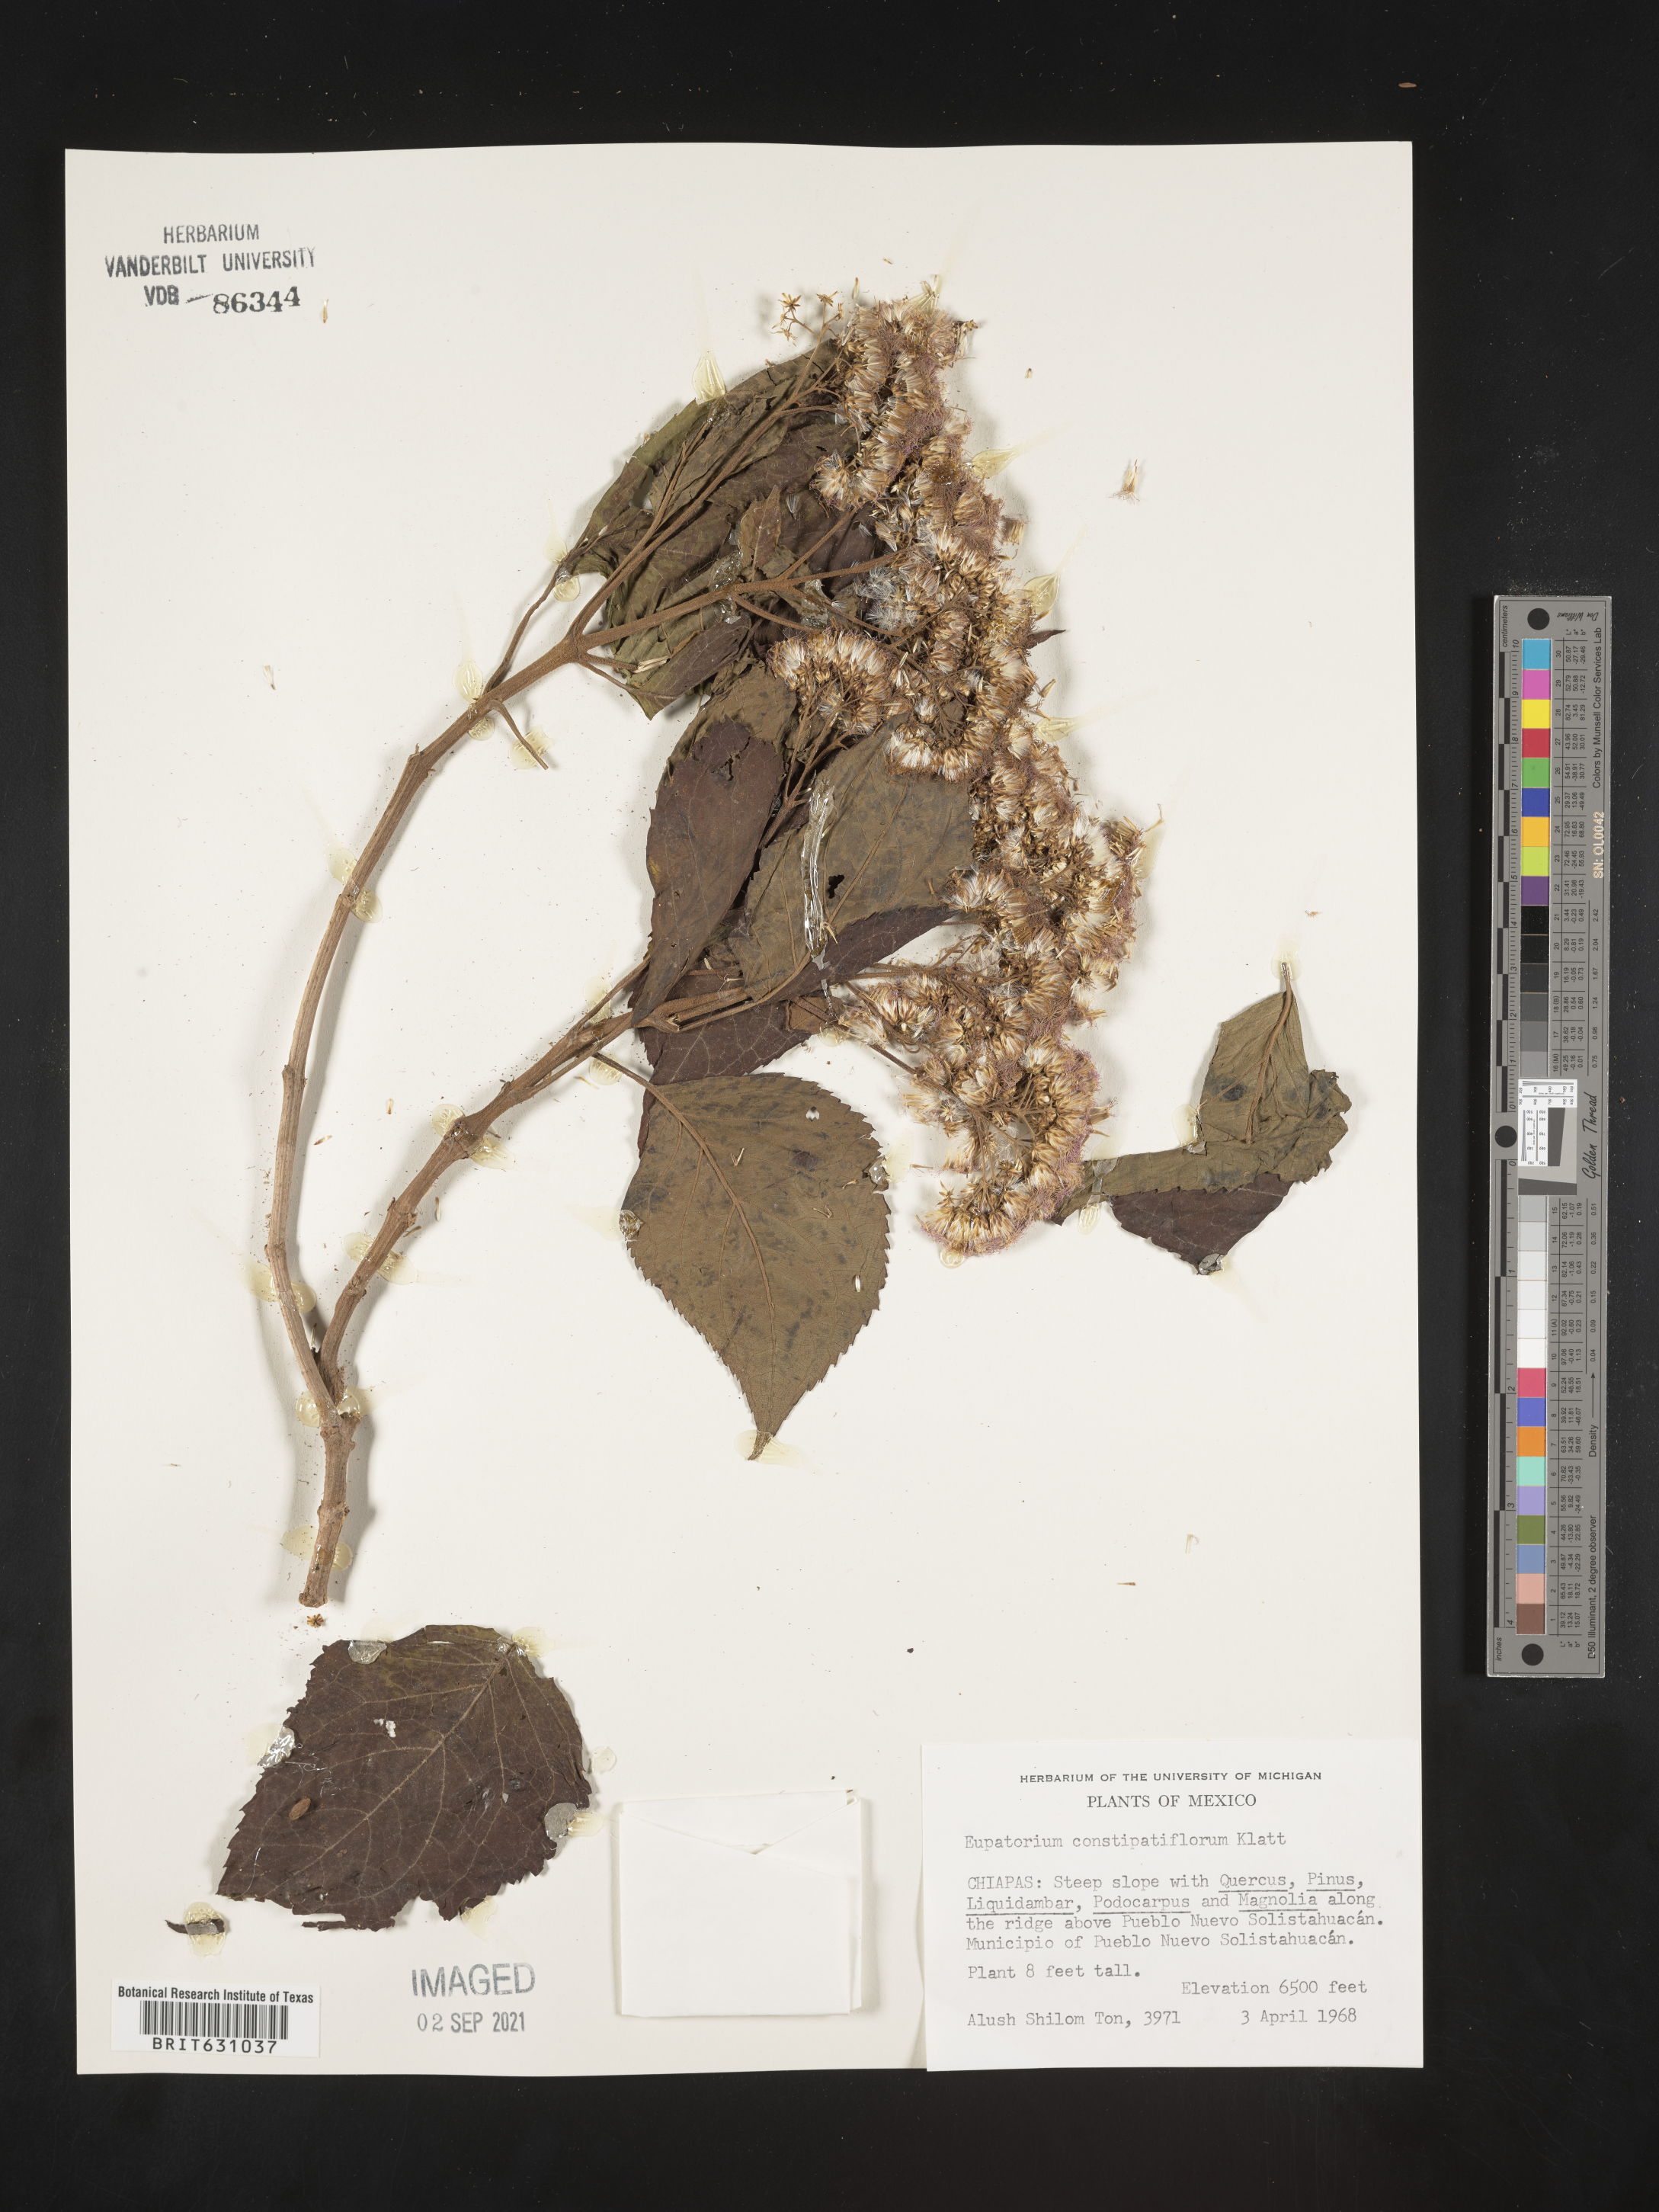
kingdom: Plantae
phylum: Tracheophyta
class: Magnoliopsida
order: Asterales
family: Asteraceae
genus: Eupatorium
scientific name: Eupatorium
